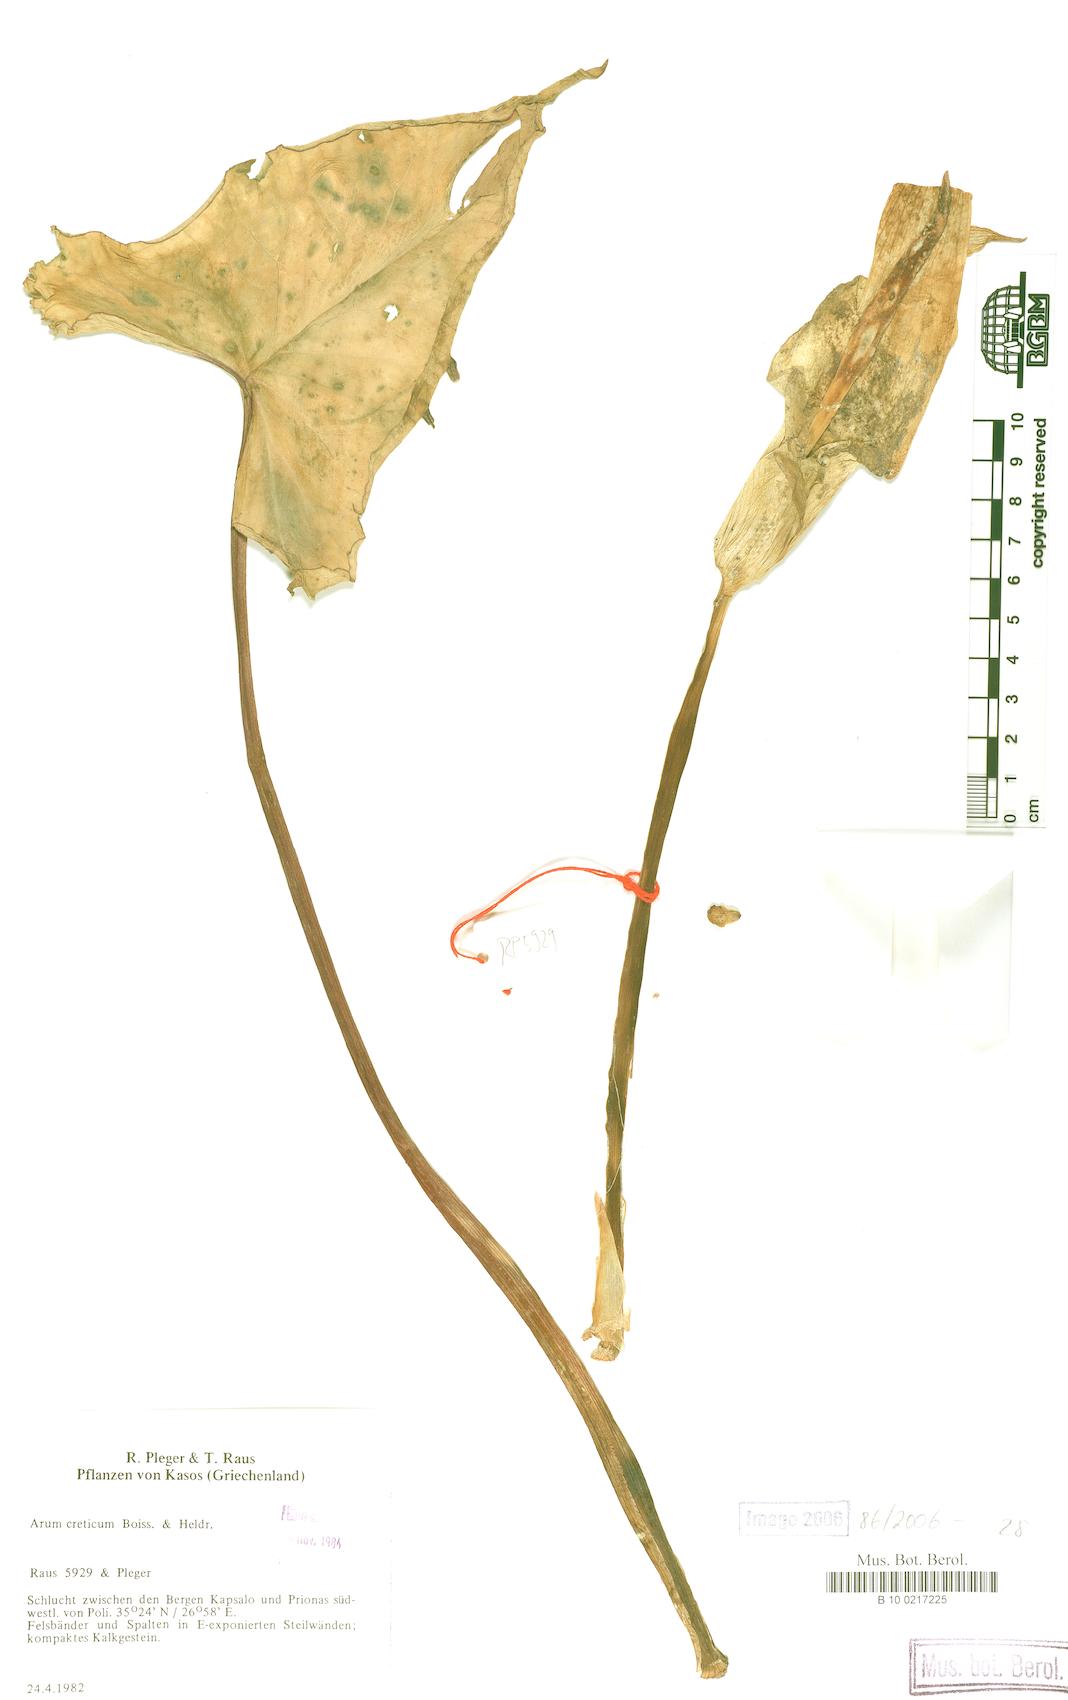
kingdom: Plantae
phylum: Tracheophyta
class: Liliopsida
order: Alismatales
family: Araceae
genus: Arum
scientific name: Arum creticum
